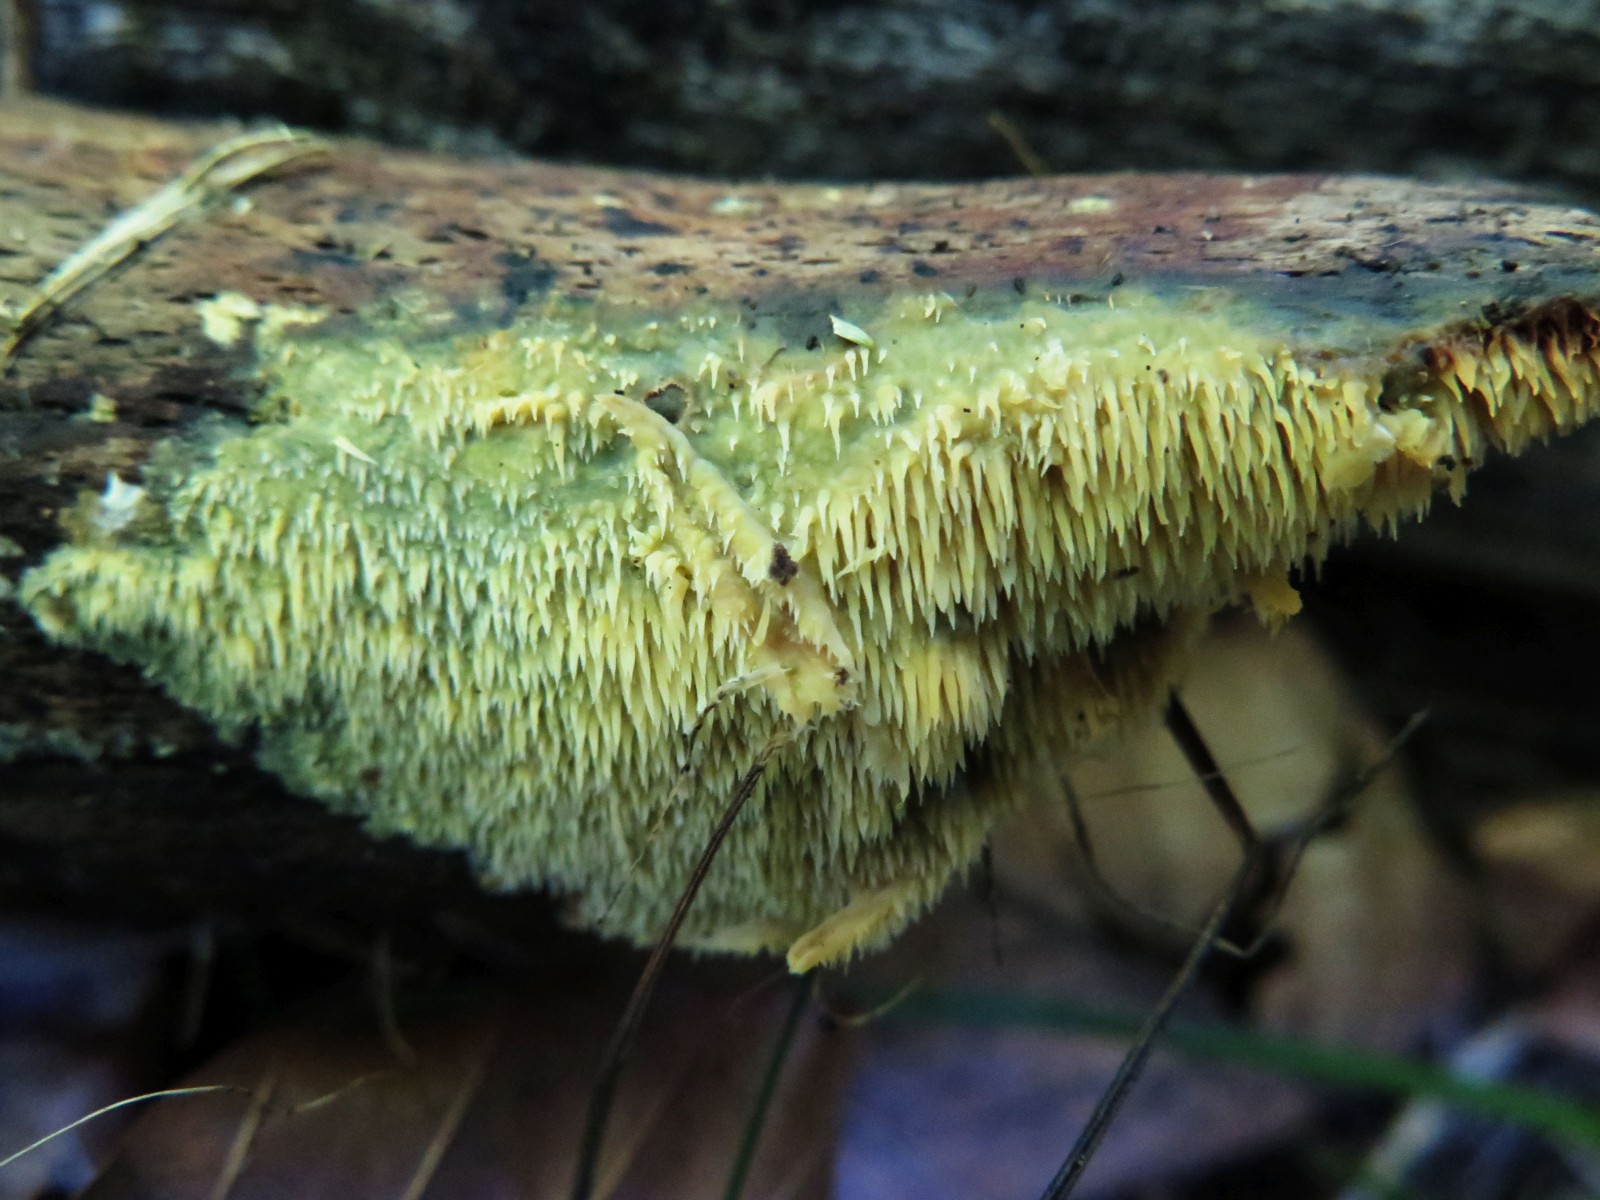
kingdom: Fungi
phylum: Basidiomycota
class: Agaricomycetes
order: Polyporales
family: Meruliaceae
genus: Mycoacia
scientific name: Mycoacia uda
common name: citrongul vokspig
